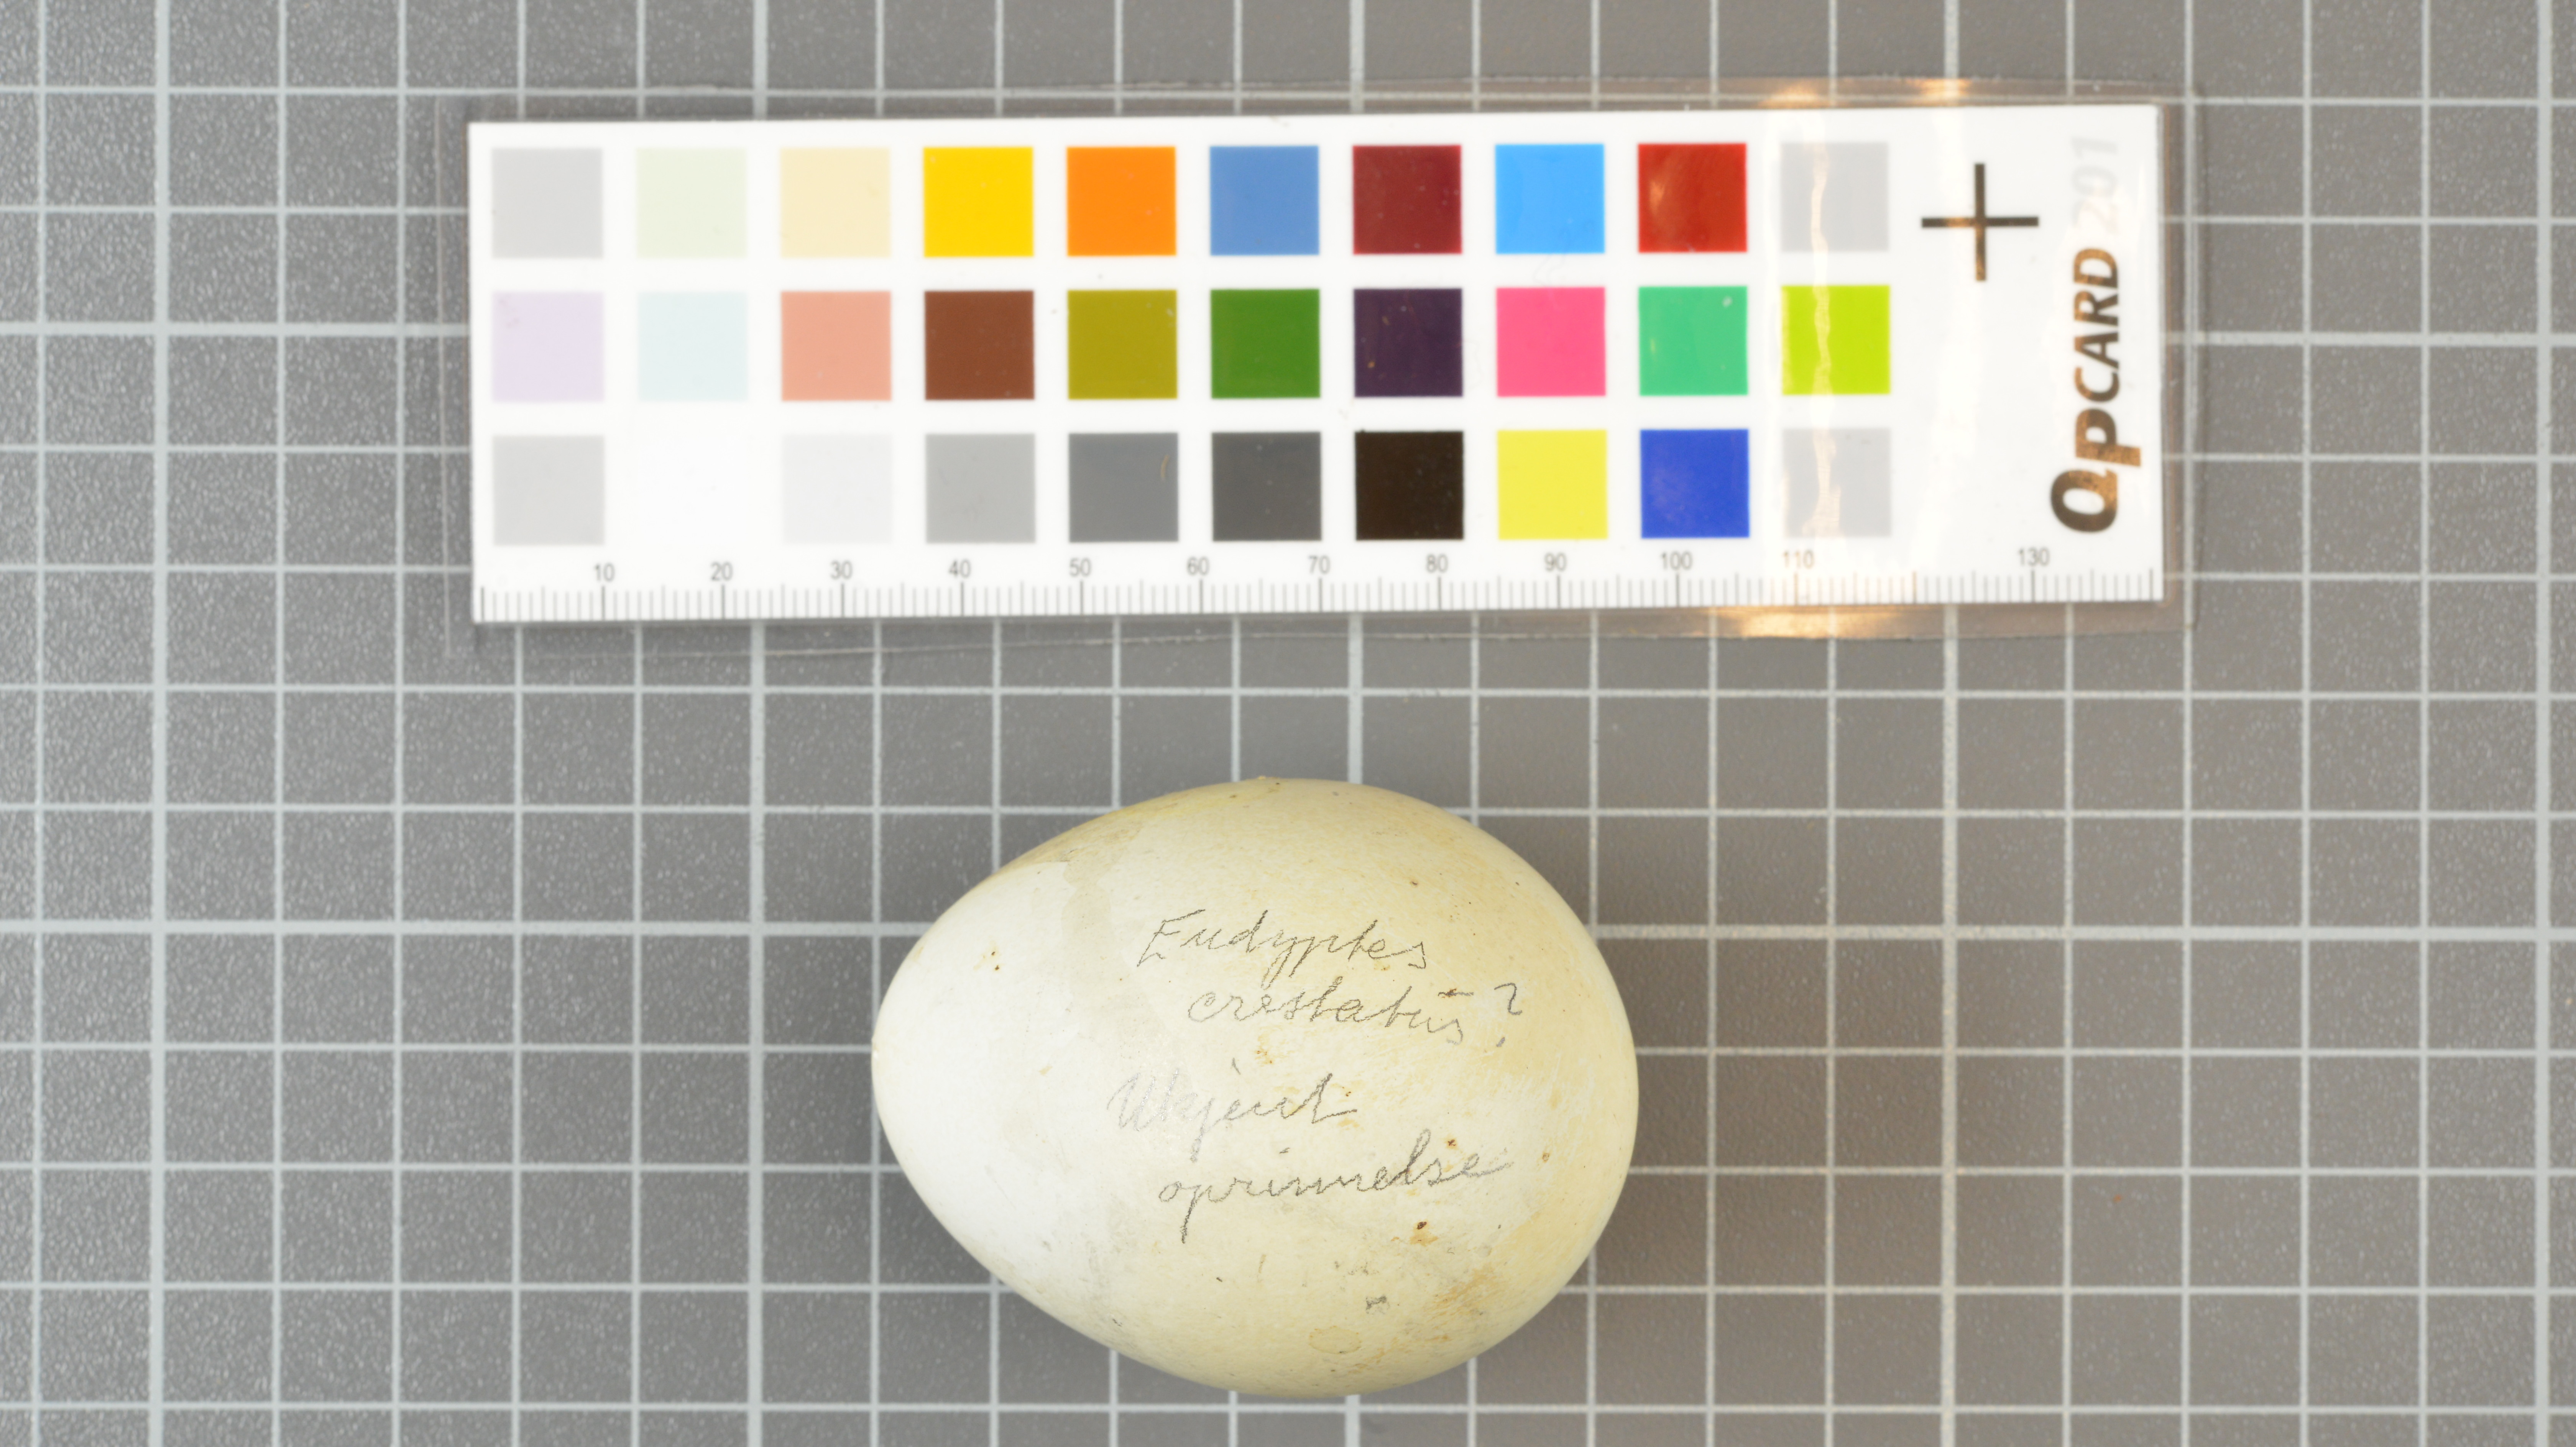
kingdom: Animalia
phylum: Chordata
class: Aves
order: Sphenisciformes
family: Spheniscidae
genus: Eudyptes
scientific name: Eudyptes moseleyi
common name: Northern rockhopper penguin
